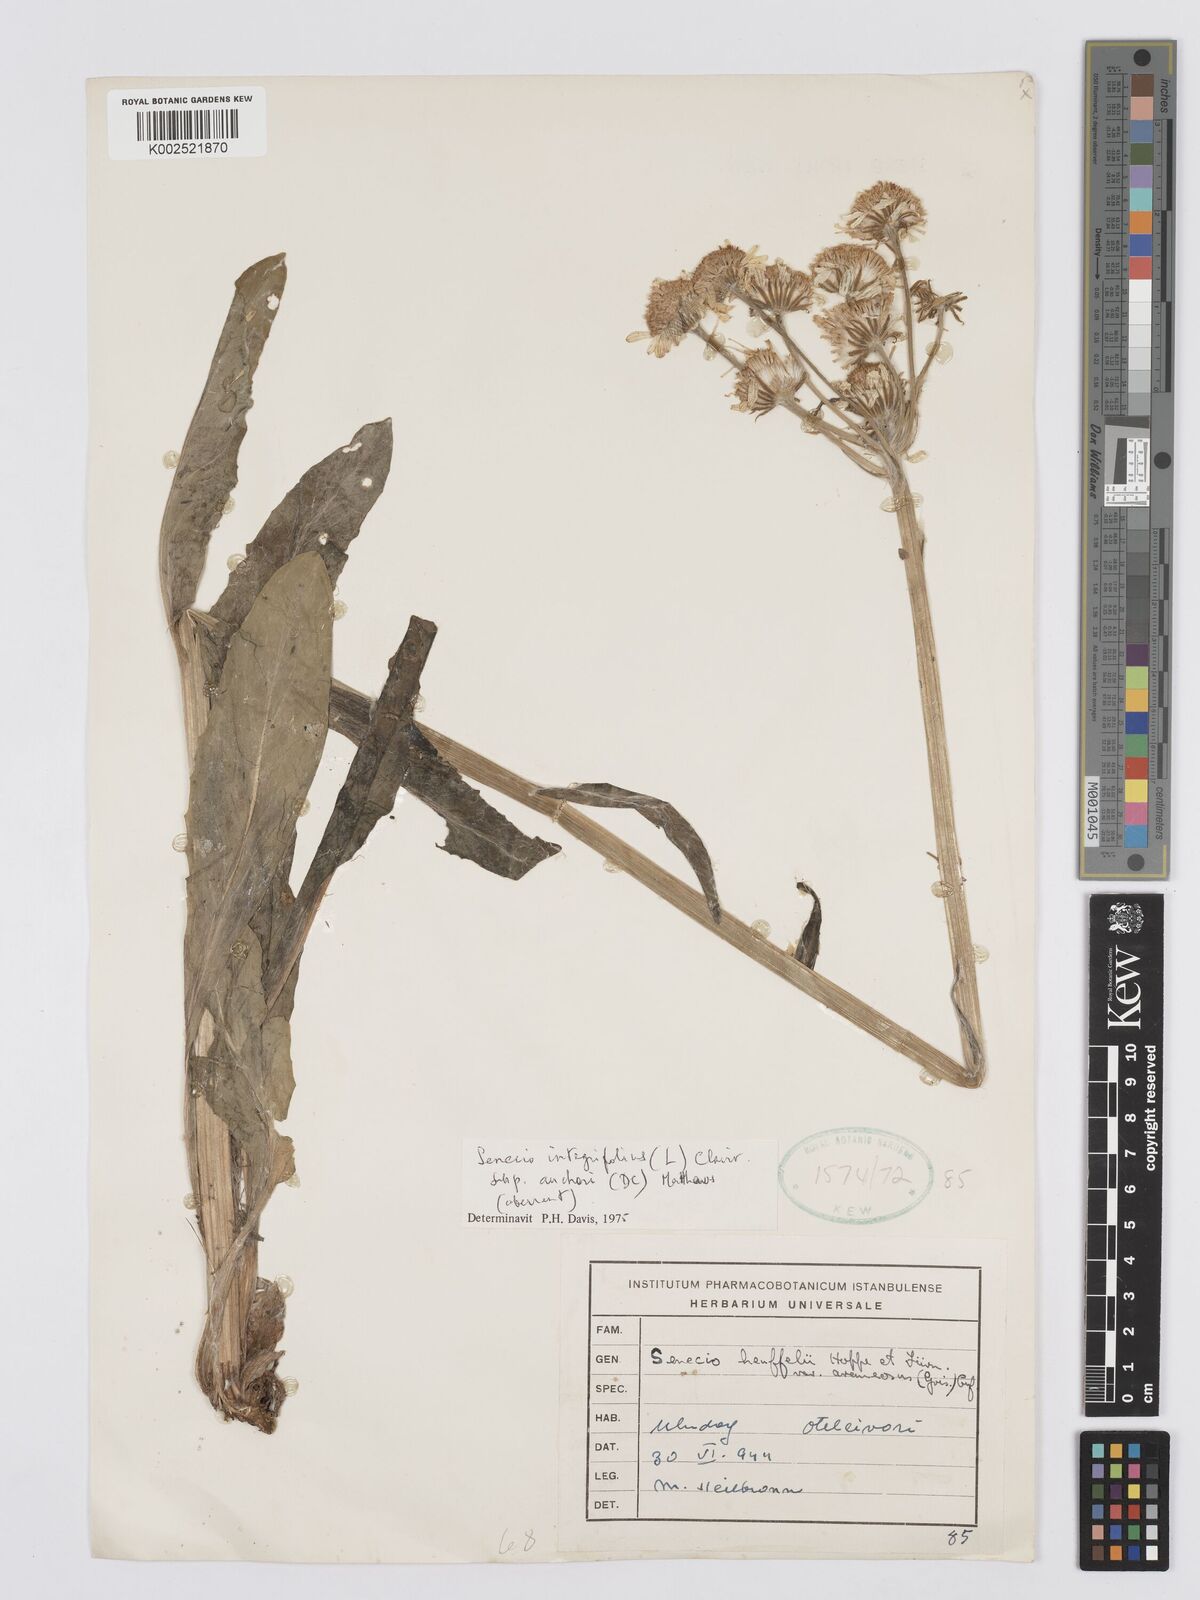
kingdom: Plantae
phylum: Tracheophyta
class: Magnoliopsida
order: Asterales
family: Asteraceae
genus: Tephroseris
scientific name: Tephroseris papposa
